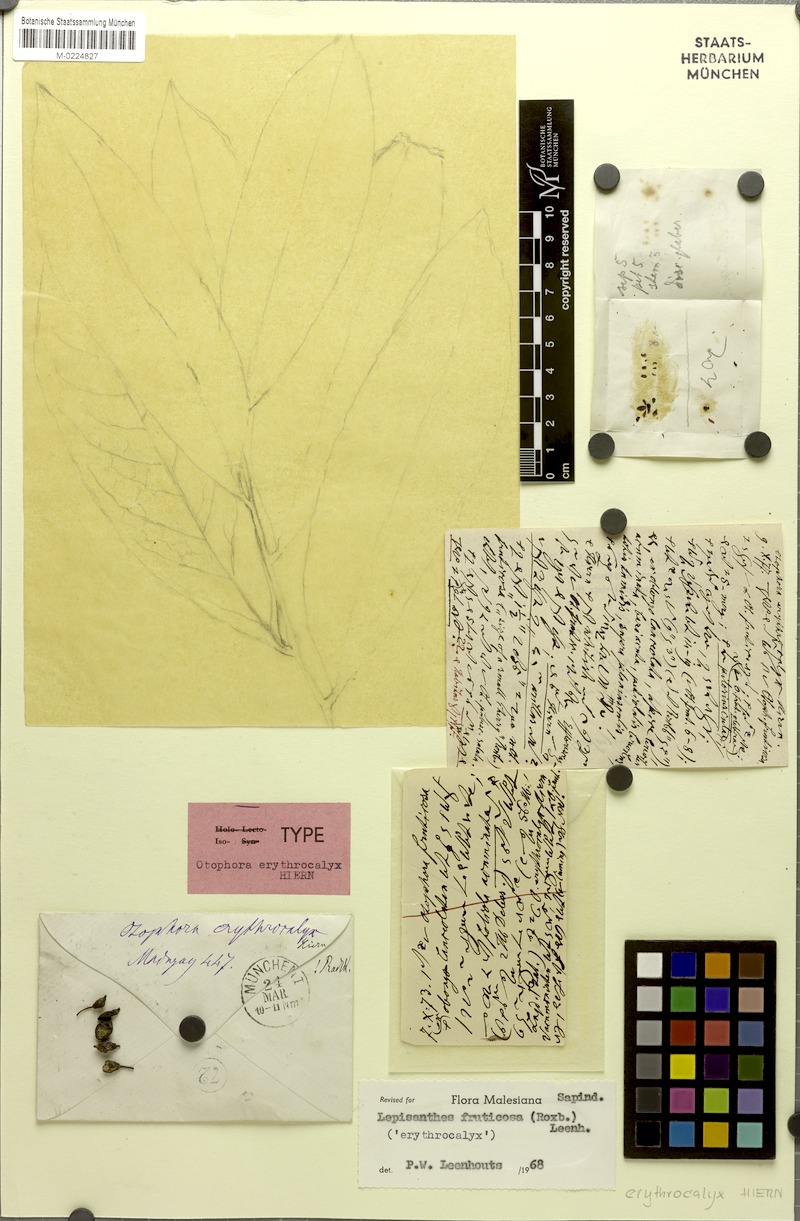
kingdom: Plantae
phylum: Tracheophyta
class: Magnoliopsida
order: Sapindales
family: Sapindaceae
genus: Lepisanthes
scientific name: Lepisanthes fruticosa
